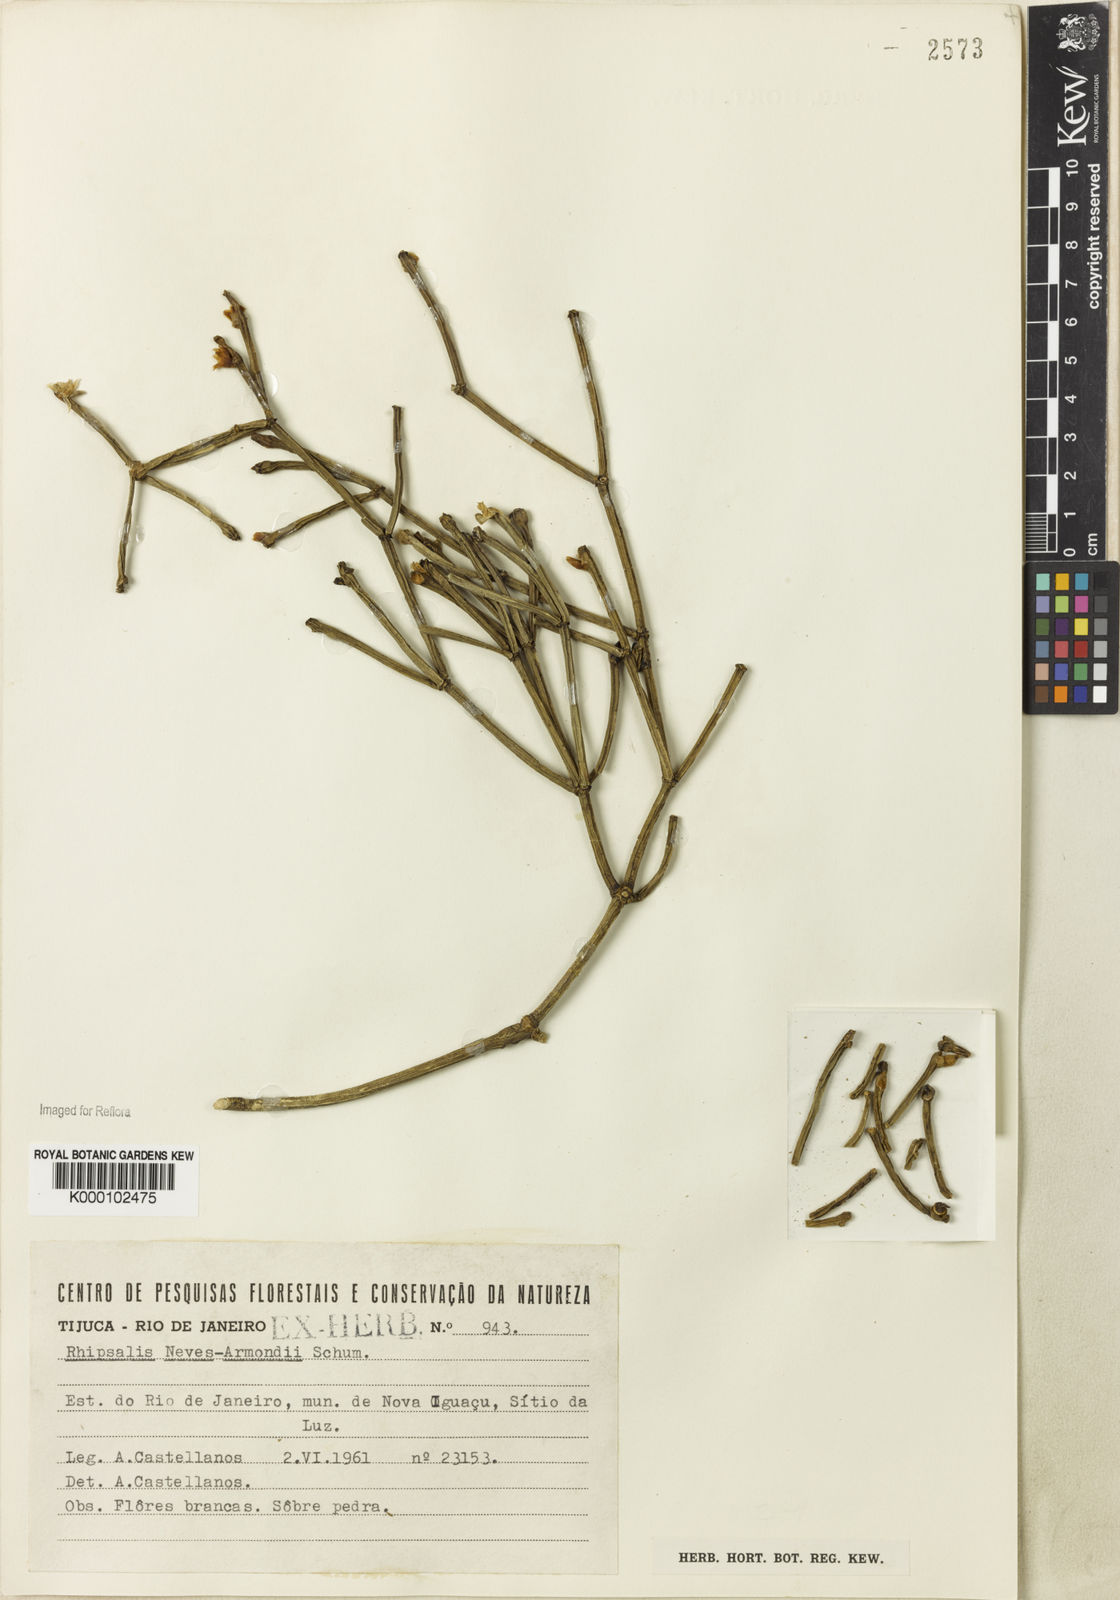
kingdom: Plantae
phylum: Tracheophyta
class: Magnoliopsida
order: Caryophyllales
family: Cactaceae
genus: Rhipsalis
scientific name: Rhipsalis neves-armondii
